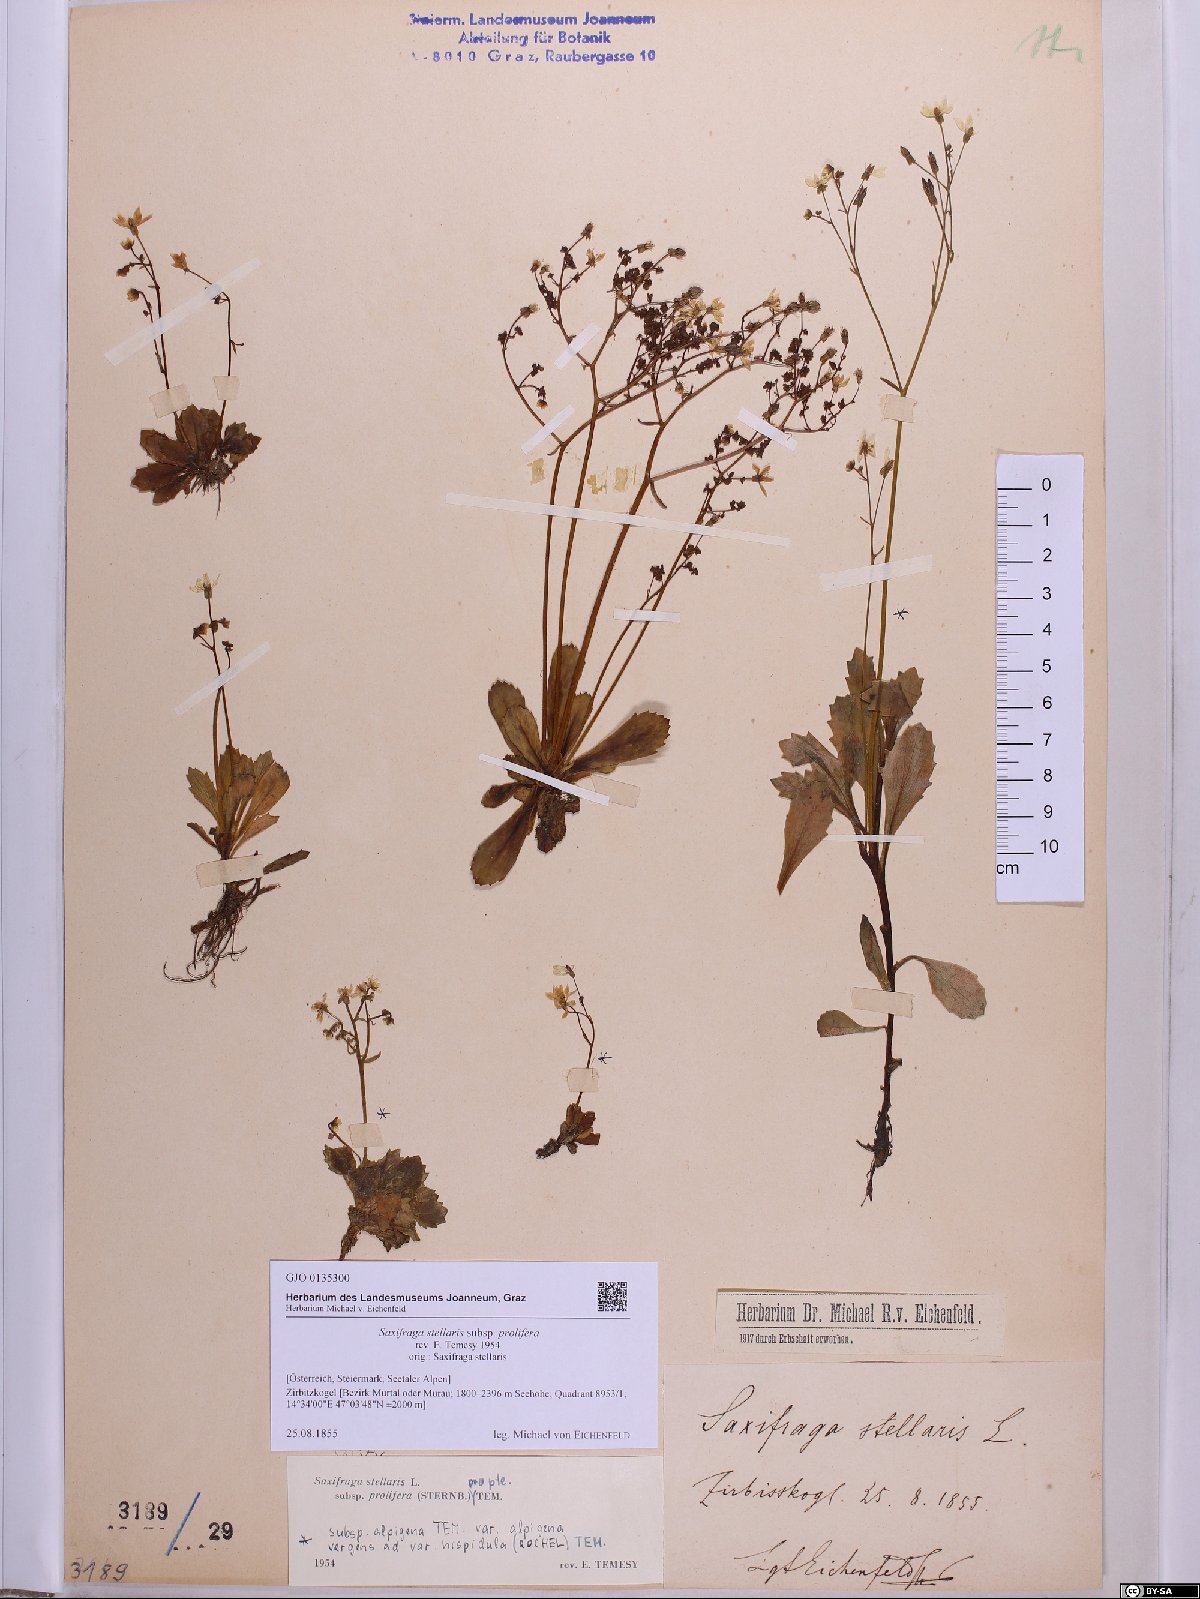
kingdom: Plantae
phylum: Tracheophyta
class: Magnoliopsida
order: Saxifragales
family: Saxifragaceae
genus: Micranthes
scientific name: Micranthes stellaris
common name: Starry saxifrage
